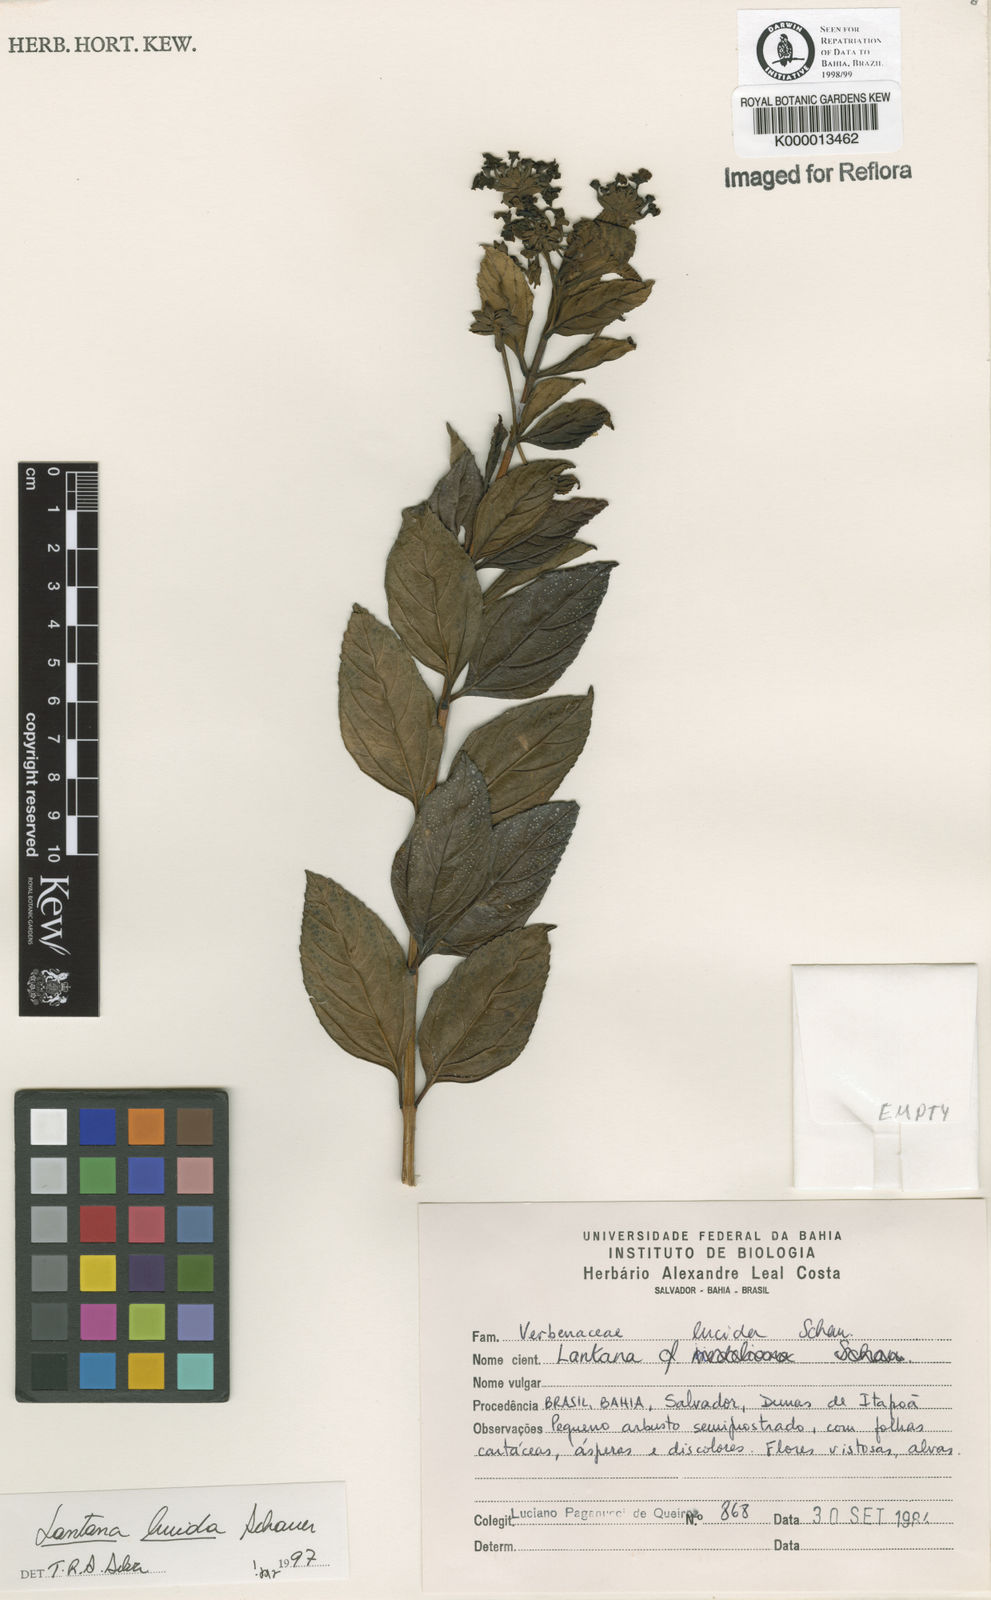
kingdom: Plantae
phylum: Tracheophyta
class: Magnoliopsida
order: Lamiales
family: Verbenaceae
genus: Lantana
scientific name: Lantana lucida
